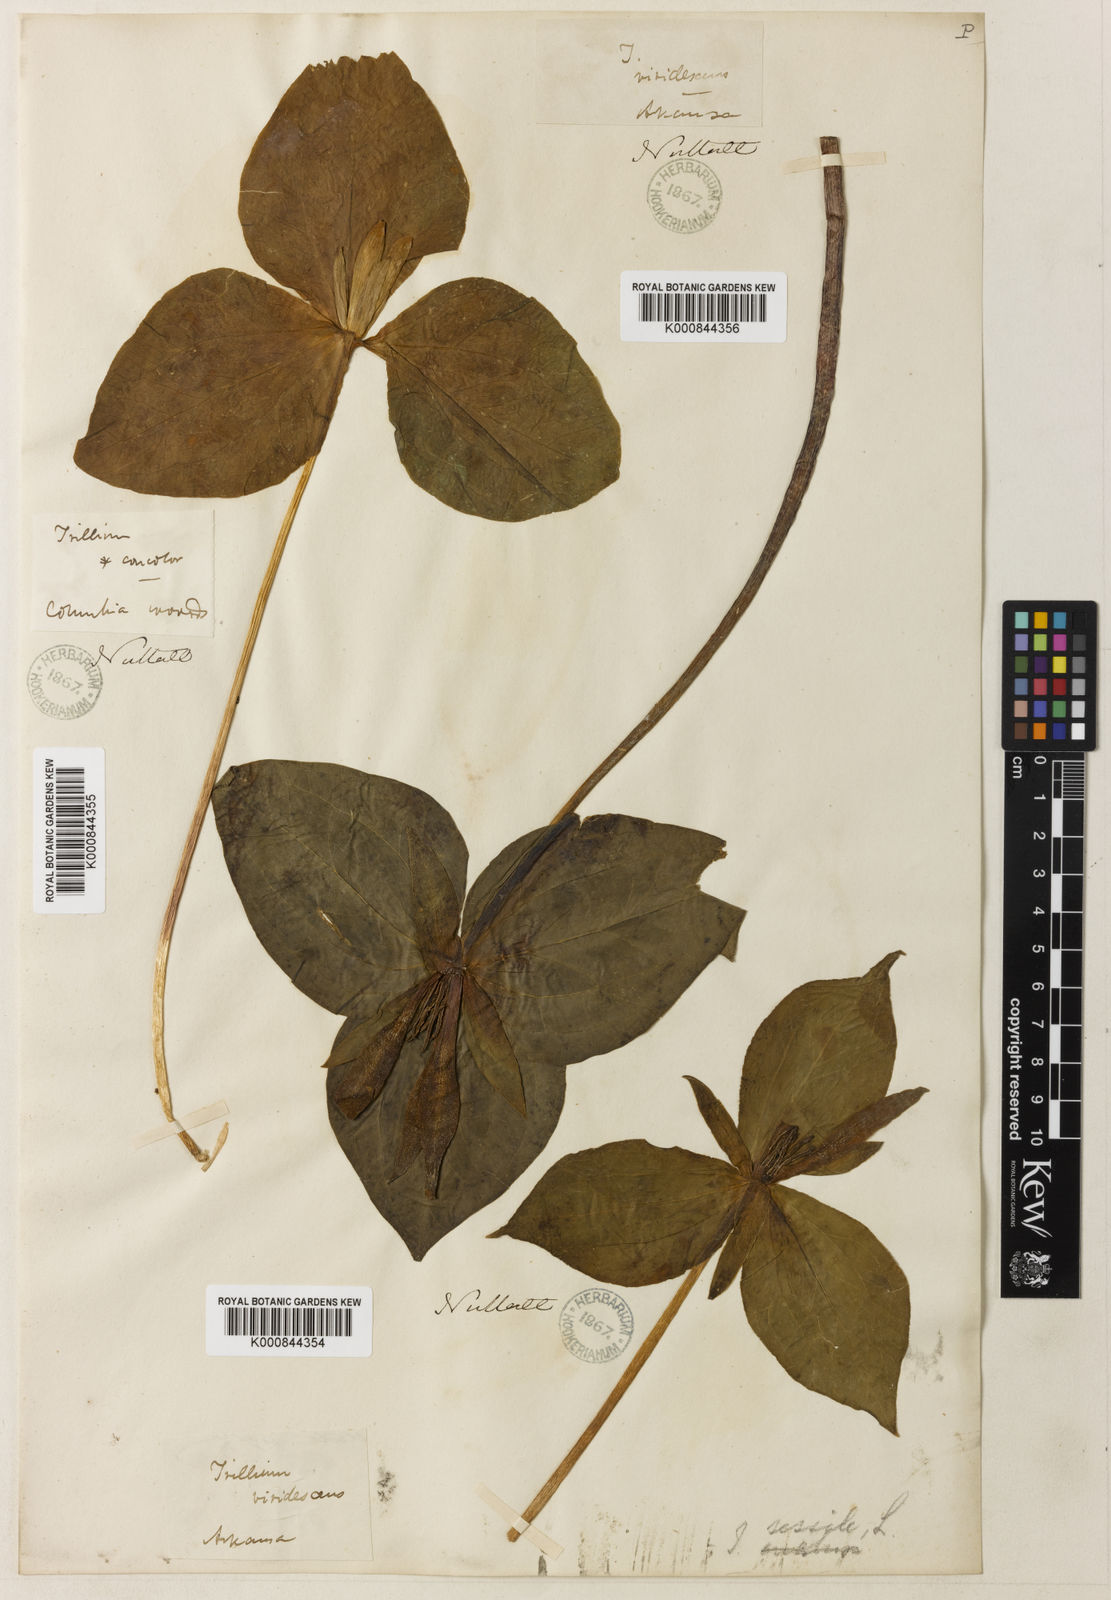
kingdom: Plantae
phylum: Tracheophyta
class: Liliopsida
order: Liliales
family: Melanthiaceae
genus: Trillium
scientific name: Trillium viridescens
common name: Ozark green trillium
